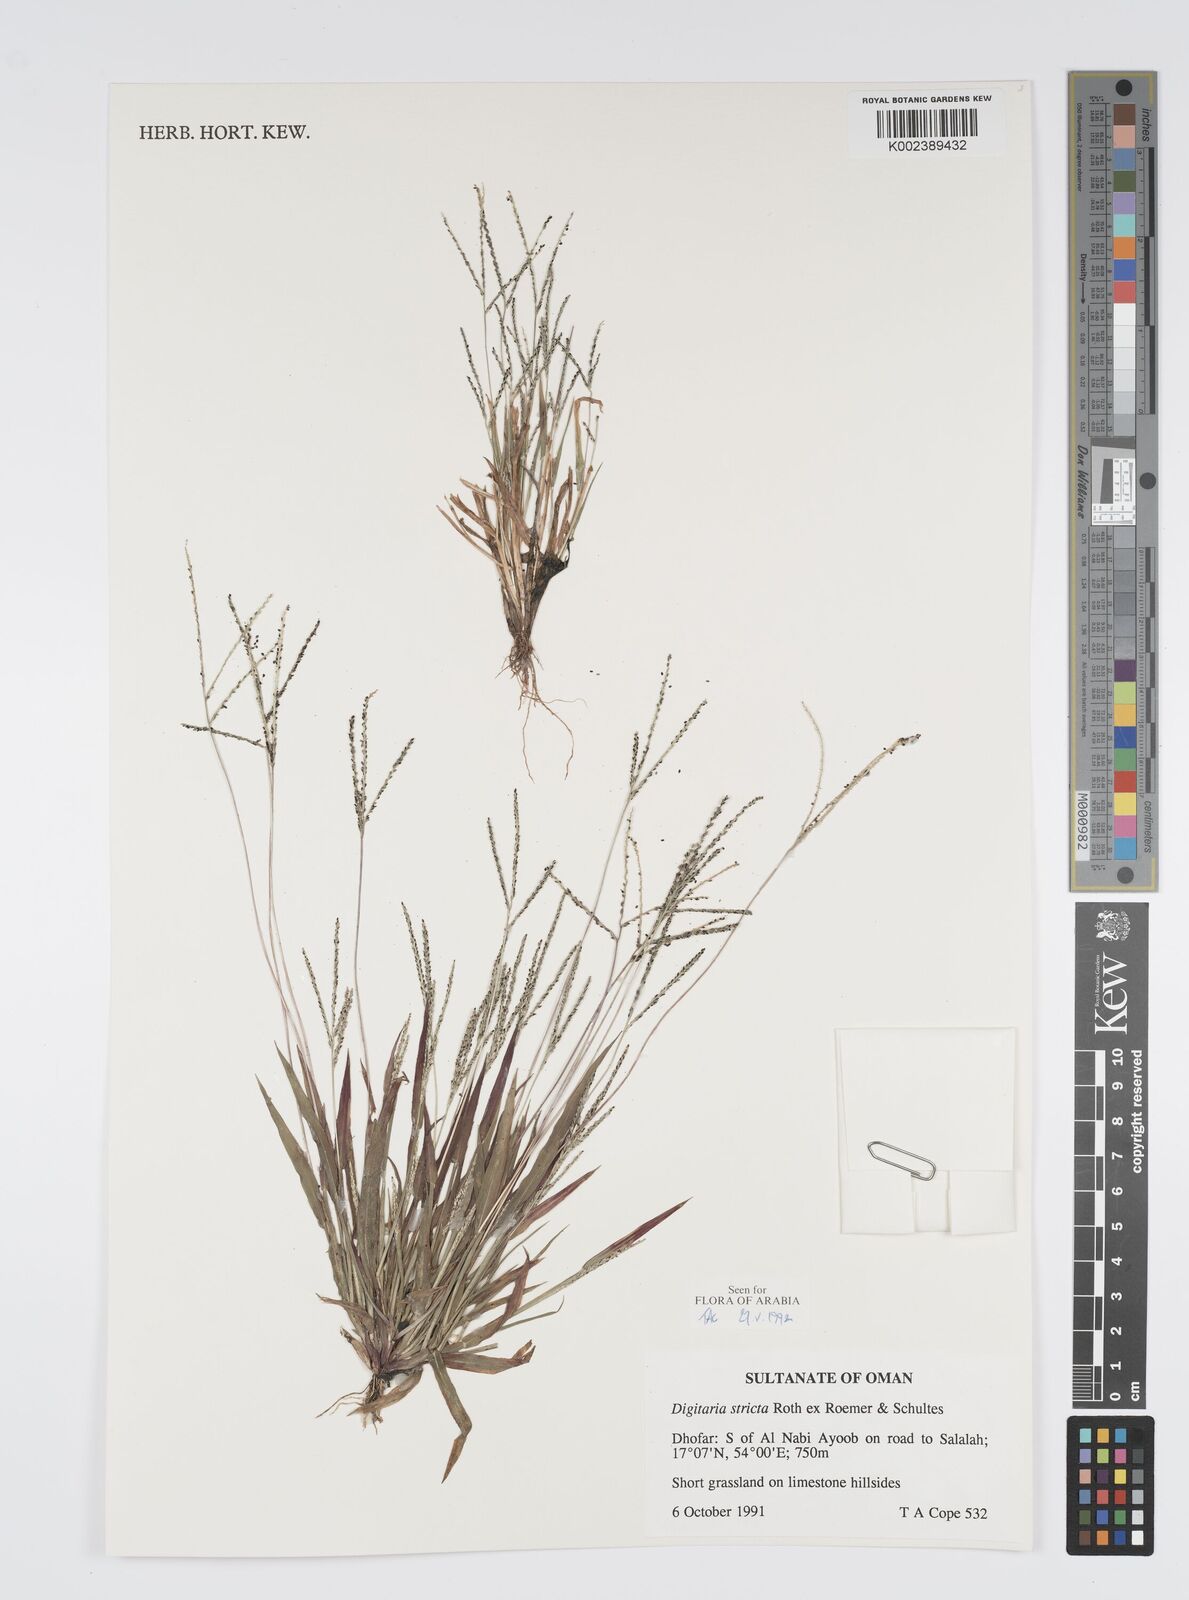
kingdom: Plantae
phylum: Tracheophyta
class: Liliopsida
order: Poales
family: Poaceae
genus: Digitaria
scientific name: Digitaria stricta
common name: Crabgrass
